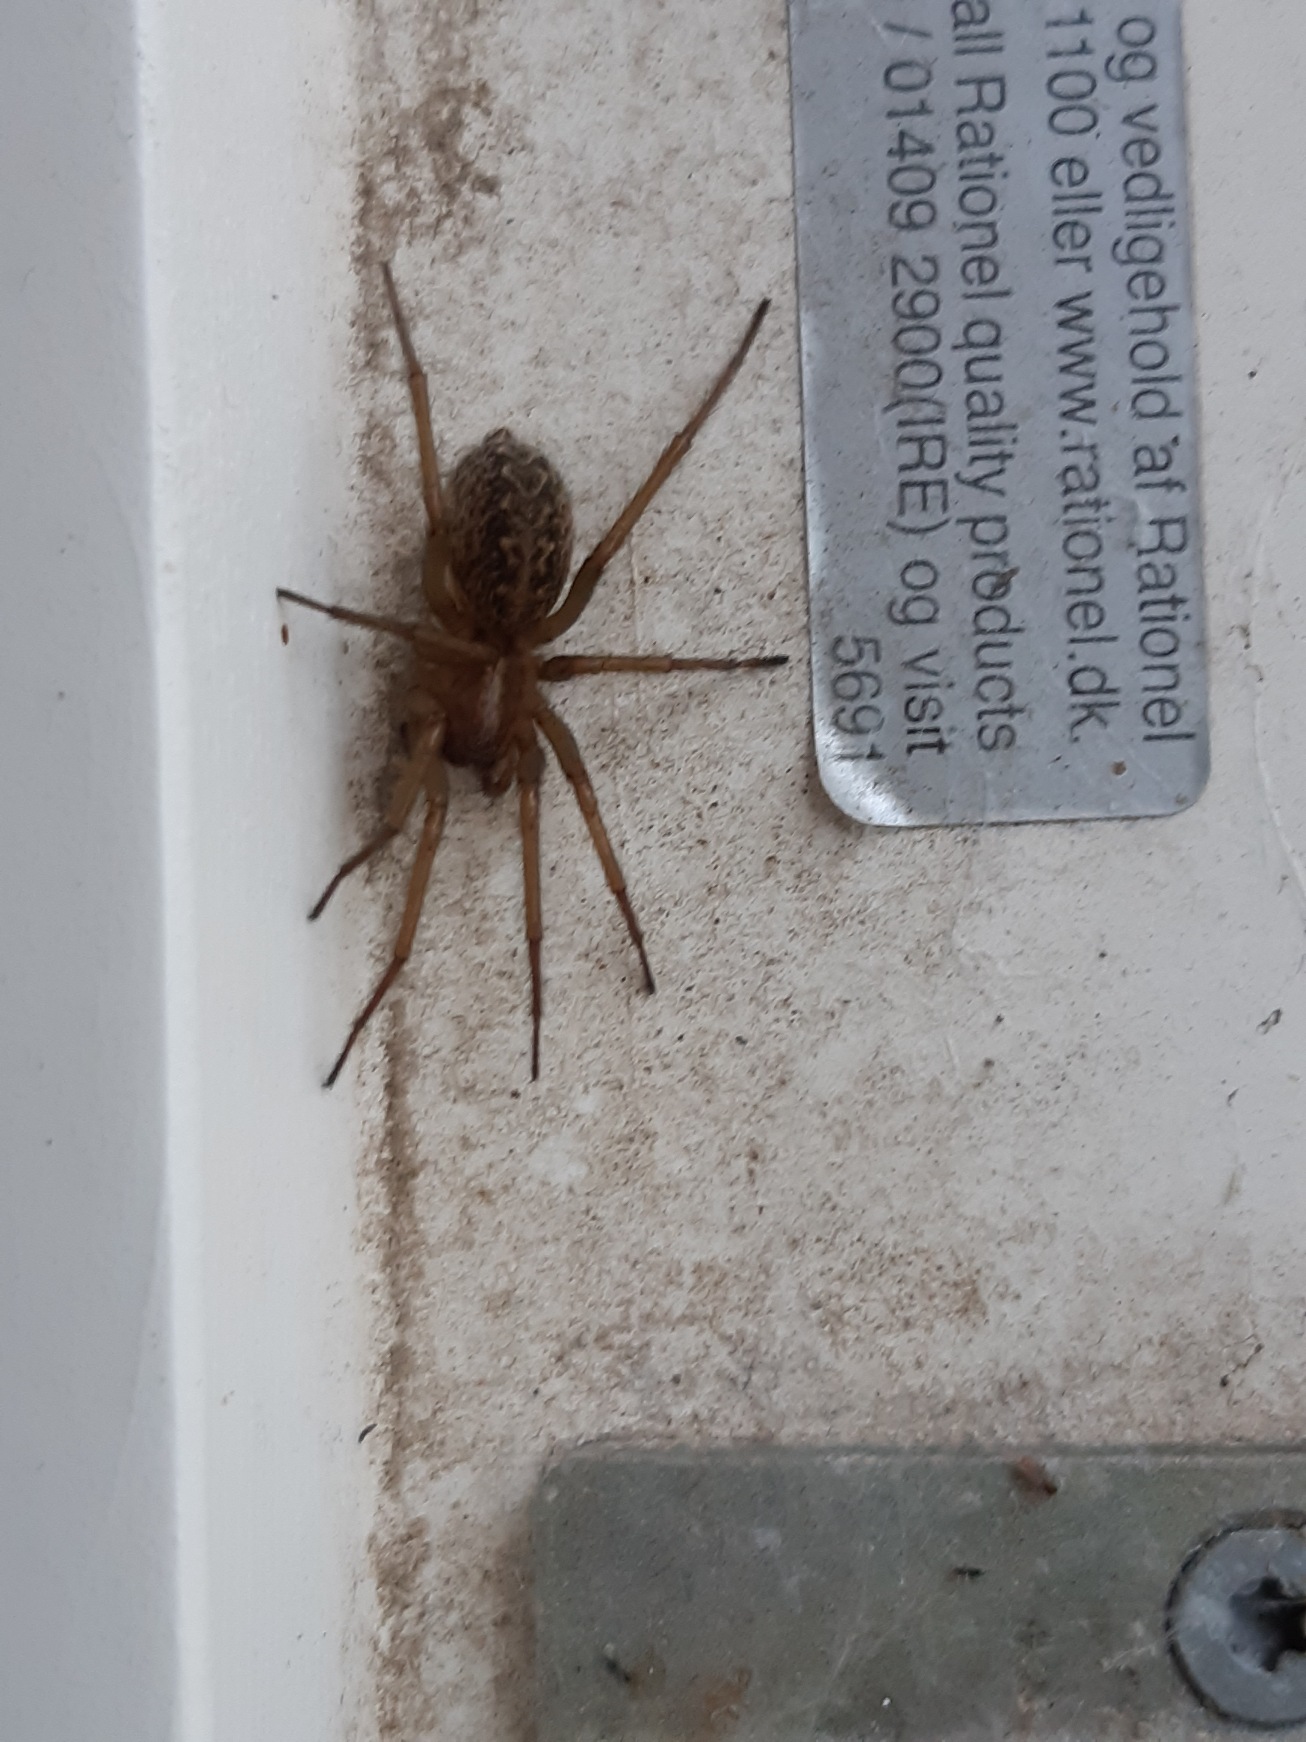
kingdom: Animalia
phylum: Arthropoda
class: Arachnida
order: Araneae
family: Agelenidae
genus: Eratigena
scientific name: Eratigena agrestis
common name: Ruderat-husedderkop
